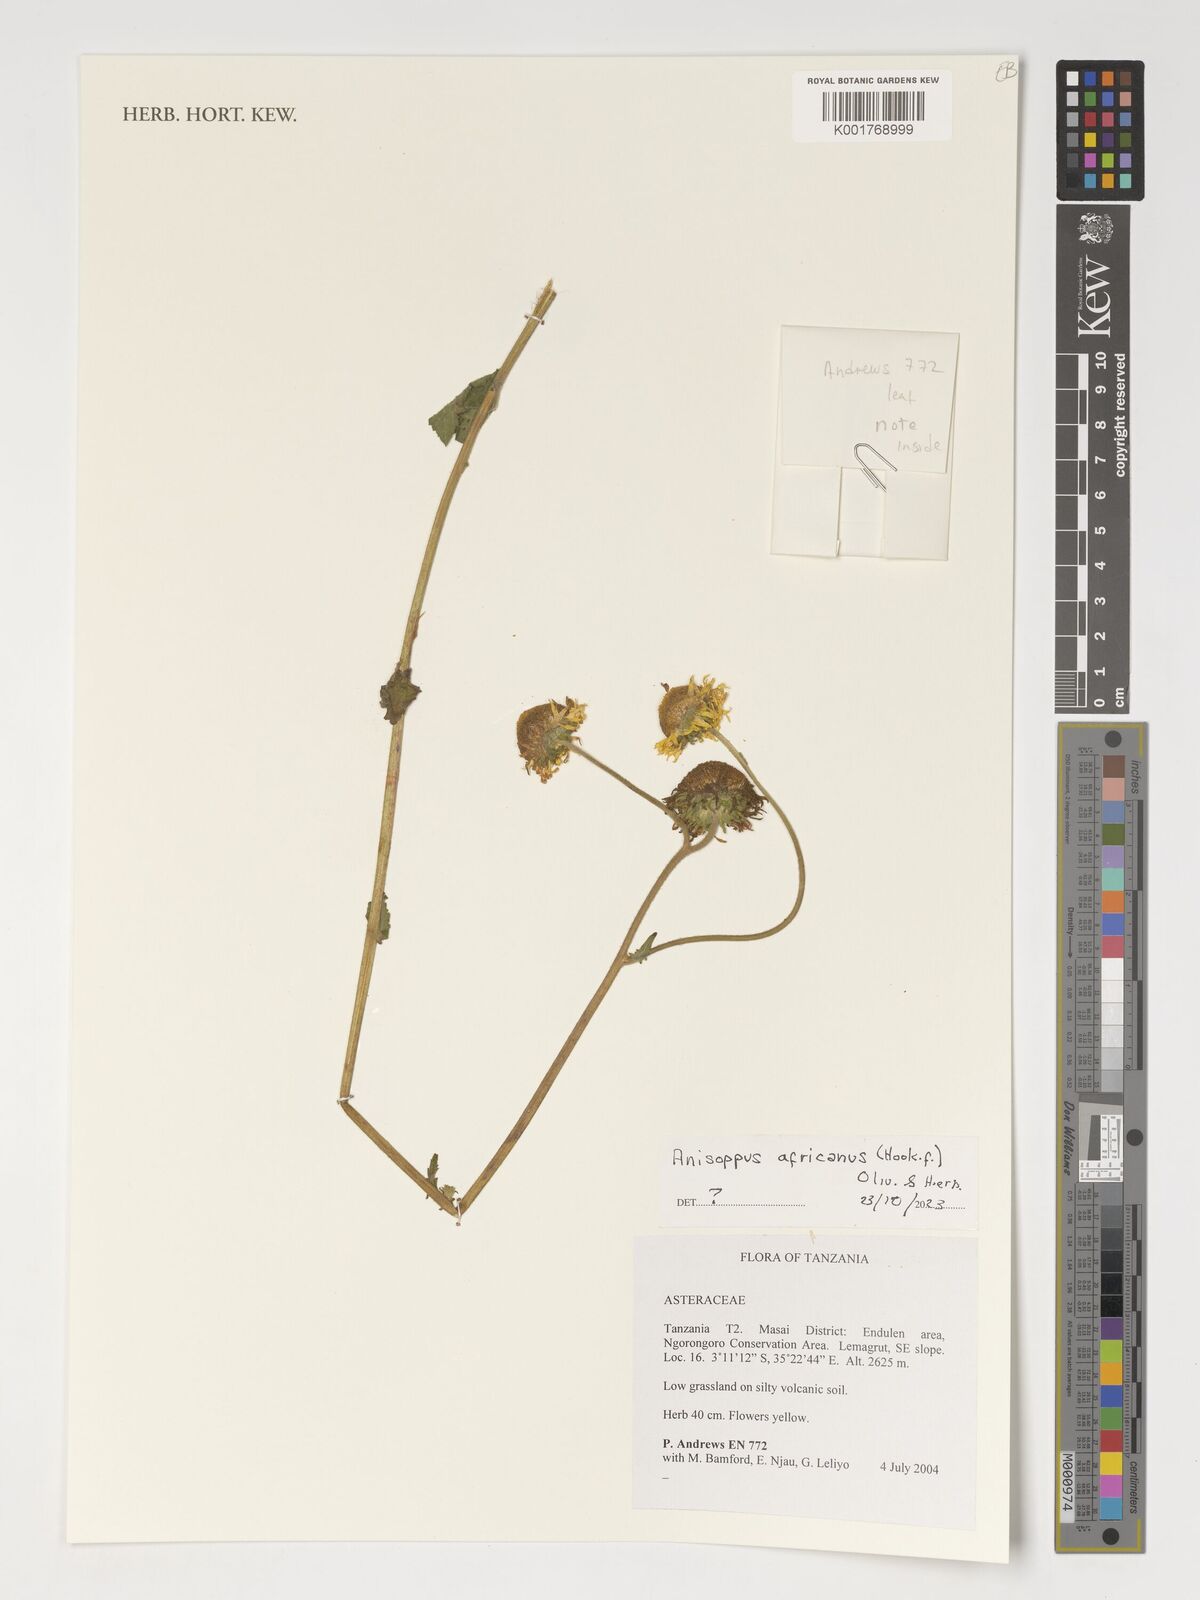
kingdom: Plantae
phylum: Tracheophyta
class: Magnoliopsida
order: Asterales
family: Asteraceae
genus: Anisopappus
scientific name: Anisopappus africanus
